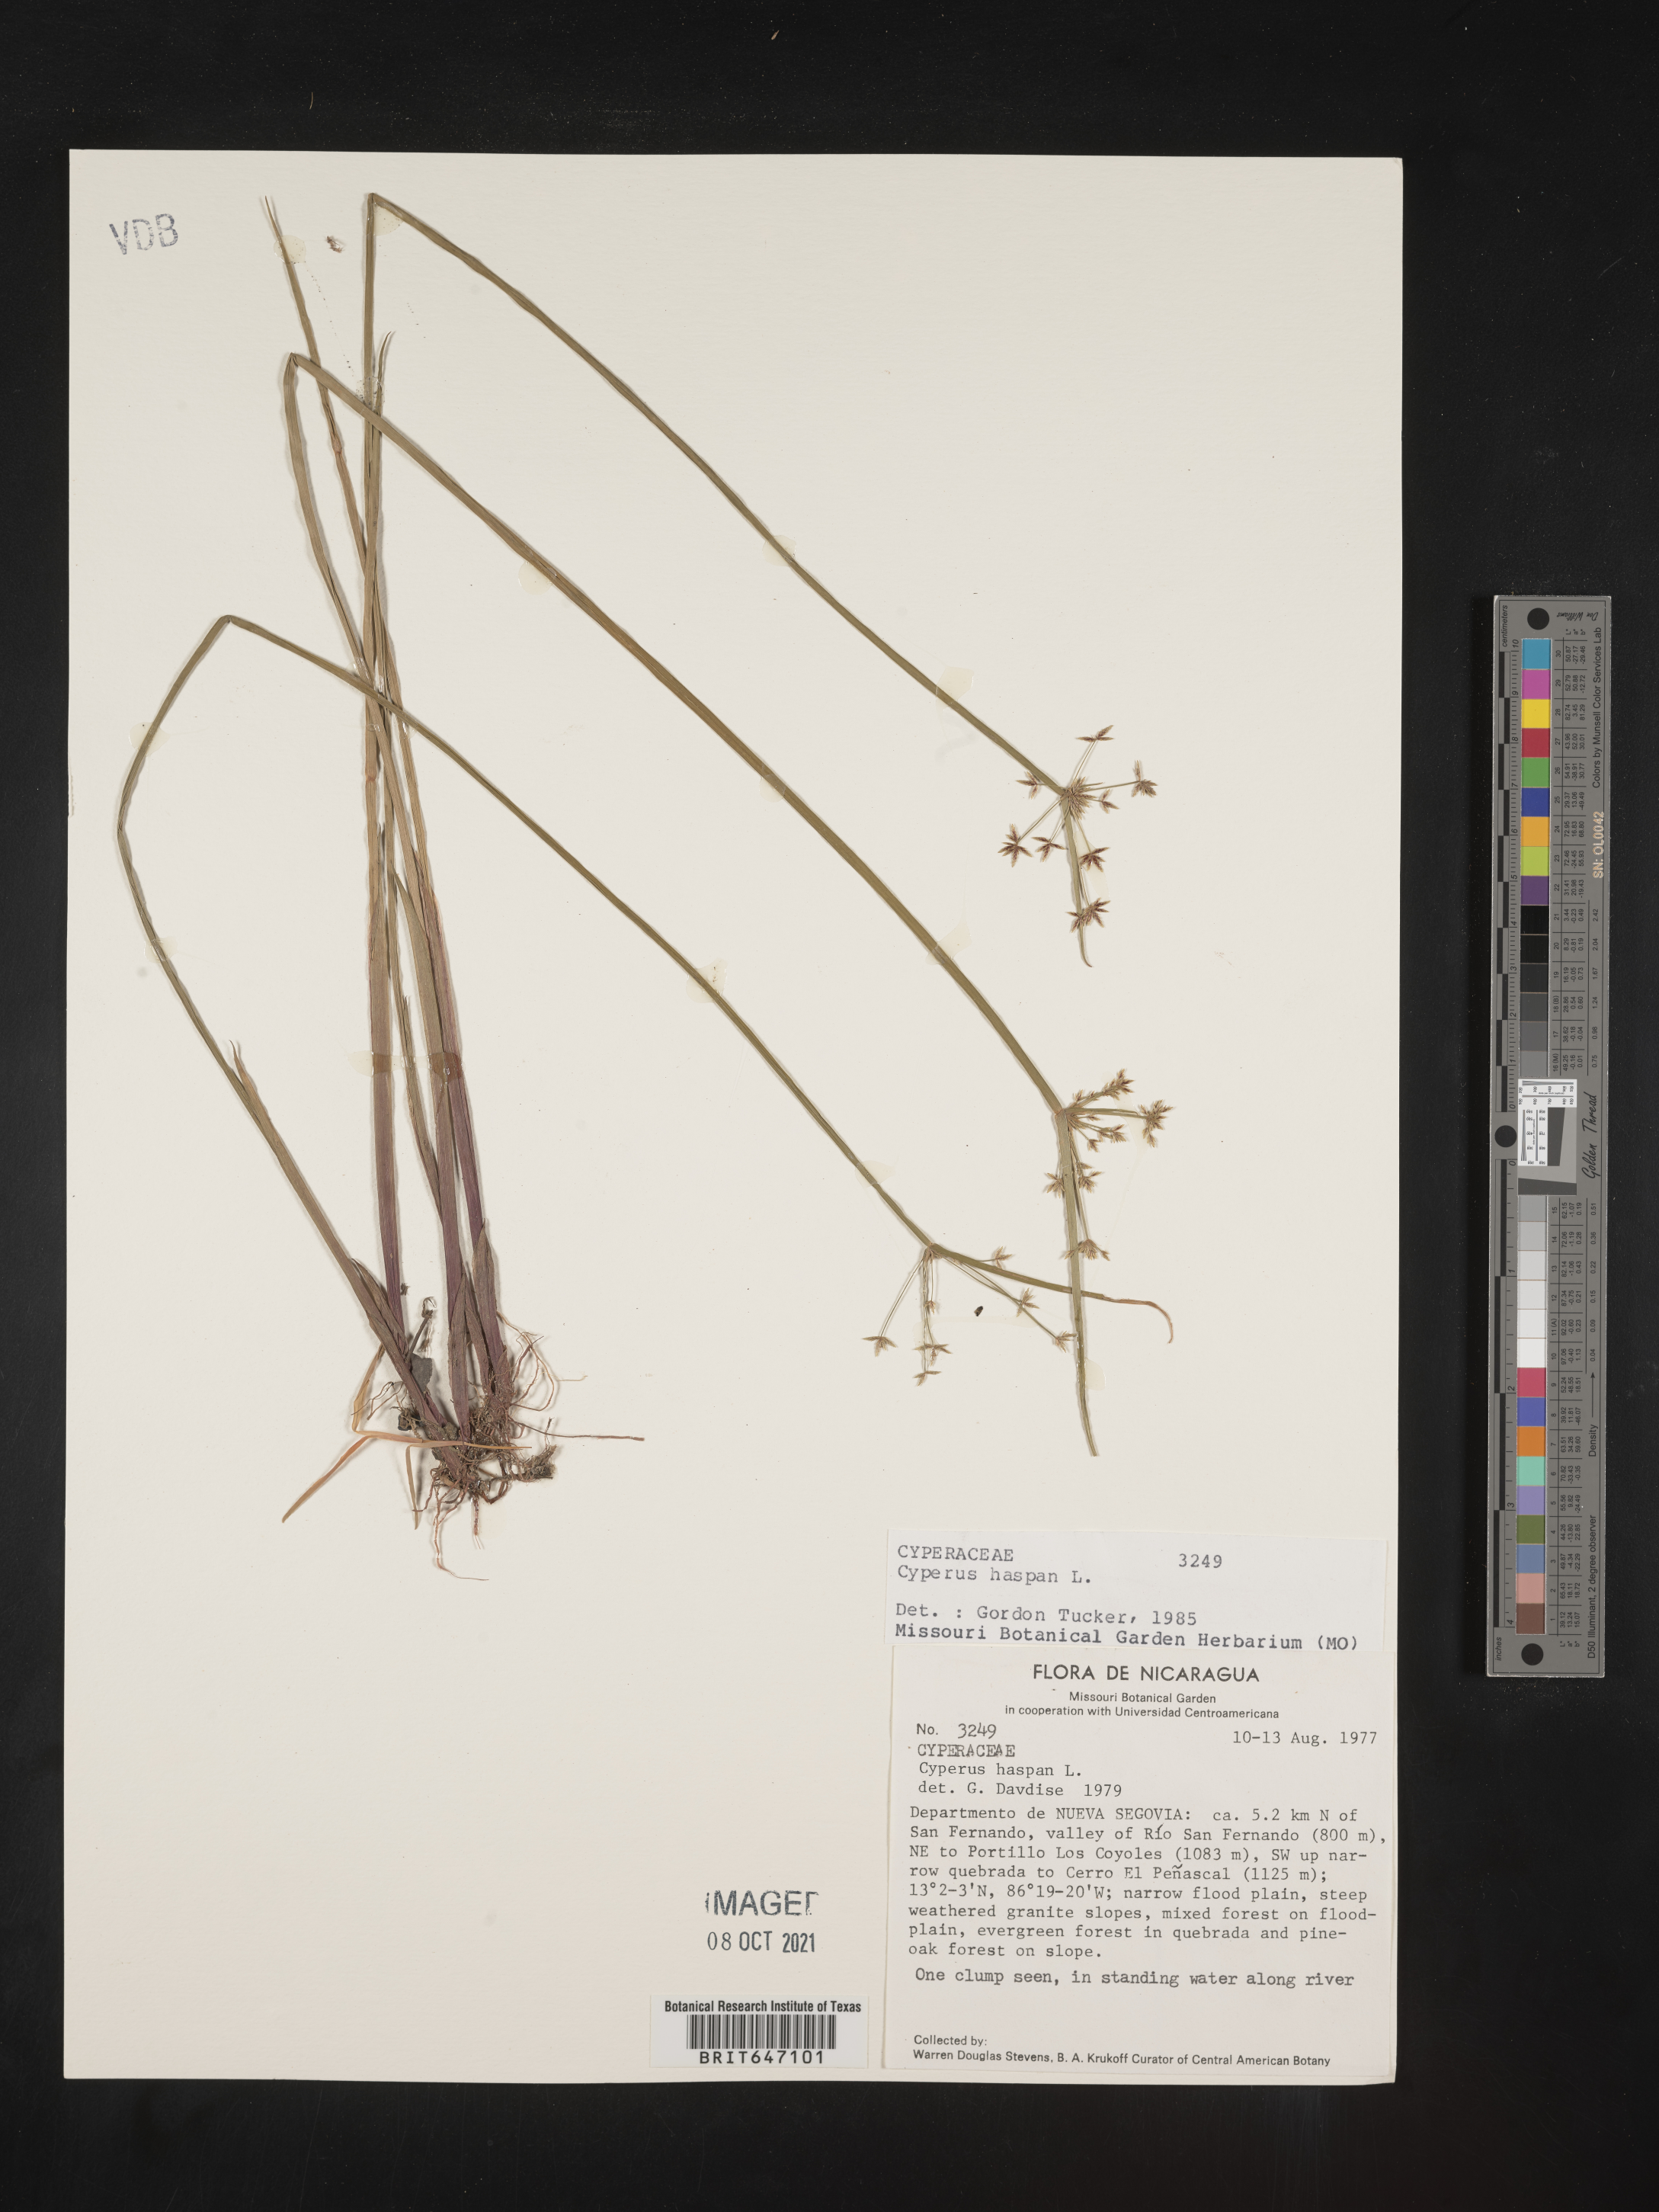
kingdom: Plantae
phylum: Tracheophyta
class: Liliopsida
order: Poales
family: Cyperaceae
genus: Cyperus
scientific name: Cyperus haspan
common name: Haspan flatsedge
